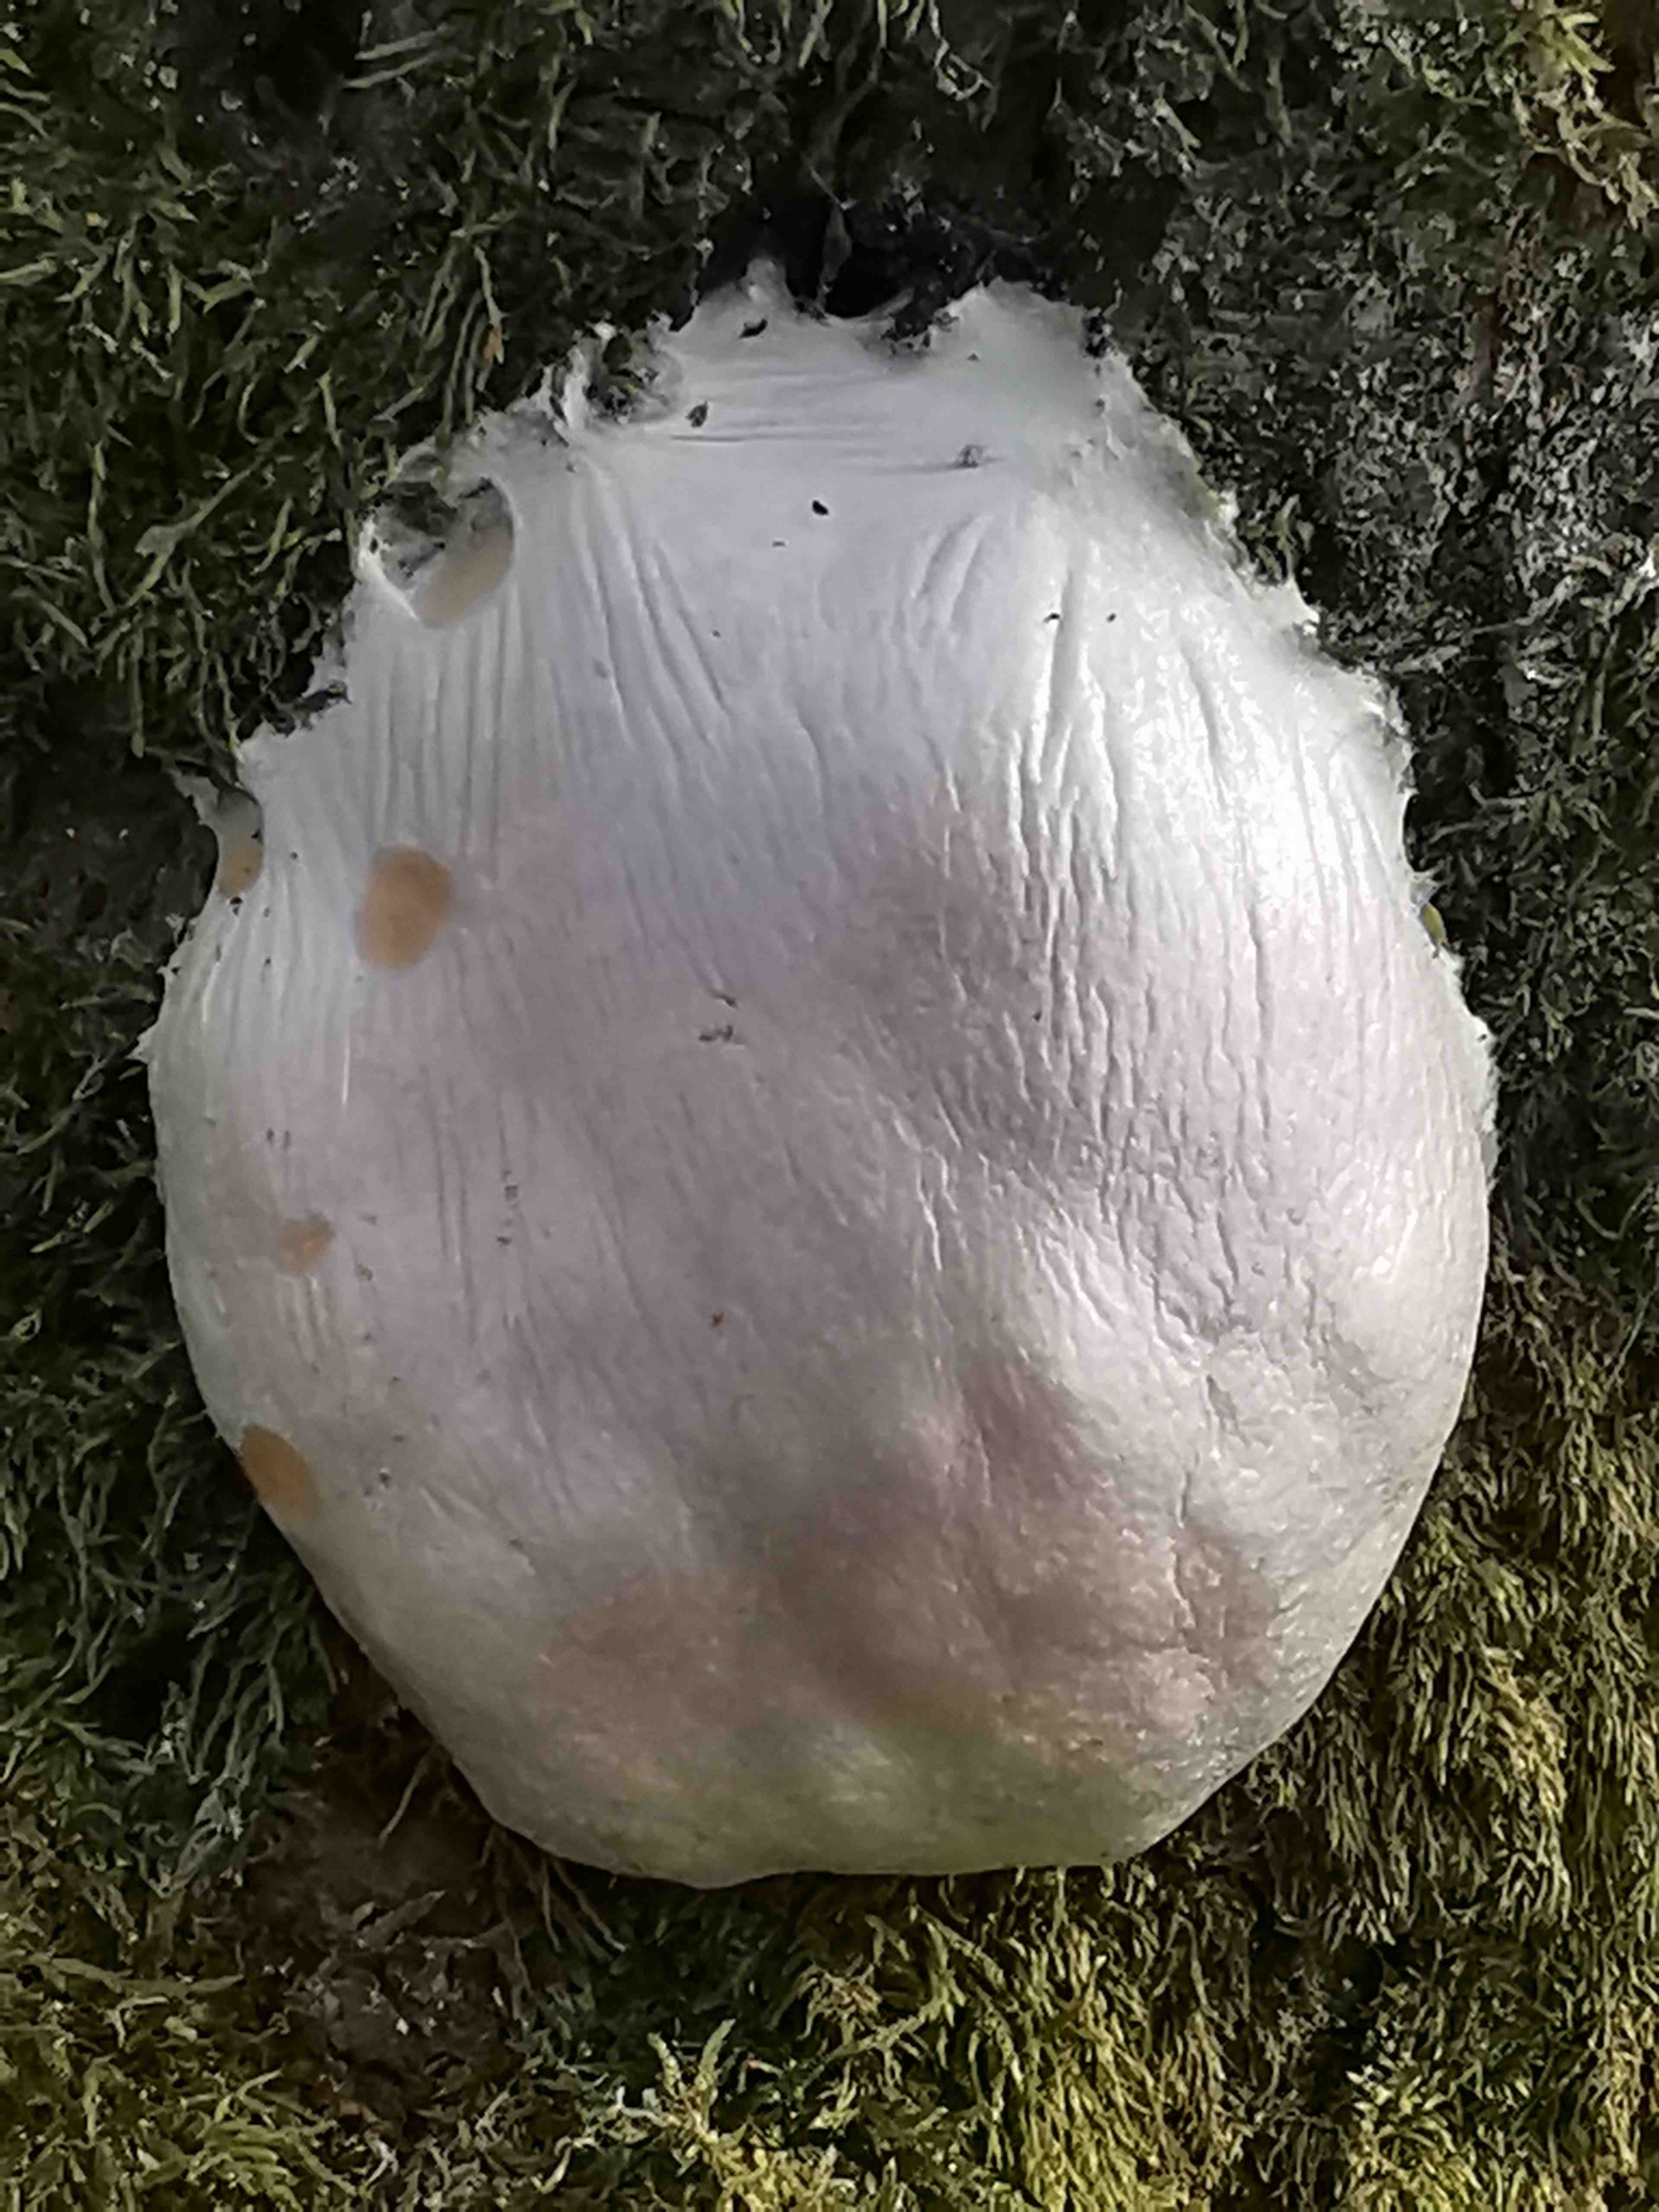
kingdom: Protozoa
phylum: Mycetozoa
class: Myxomycetes
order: Cribrariales
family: Tubiferaceae
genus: Reticularia
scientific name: Reticularia lycoperdon
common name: skinnende støvpude
